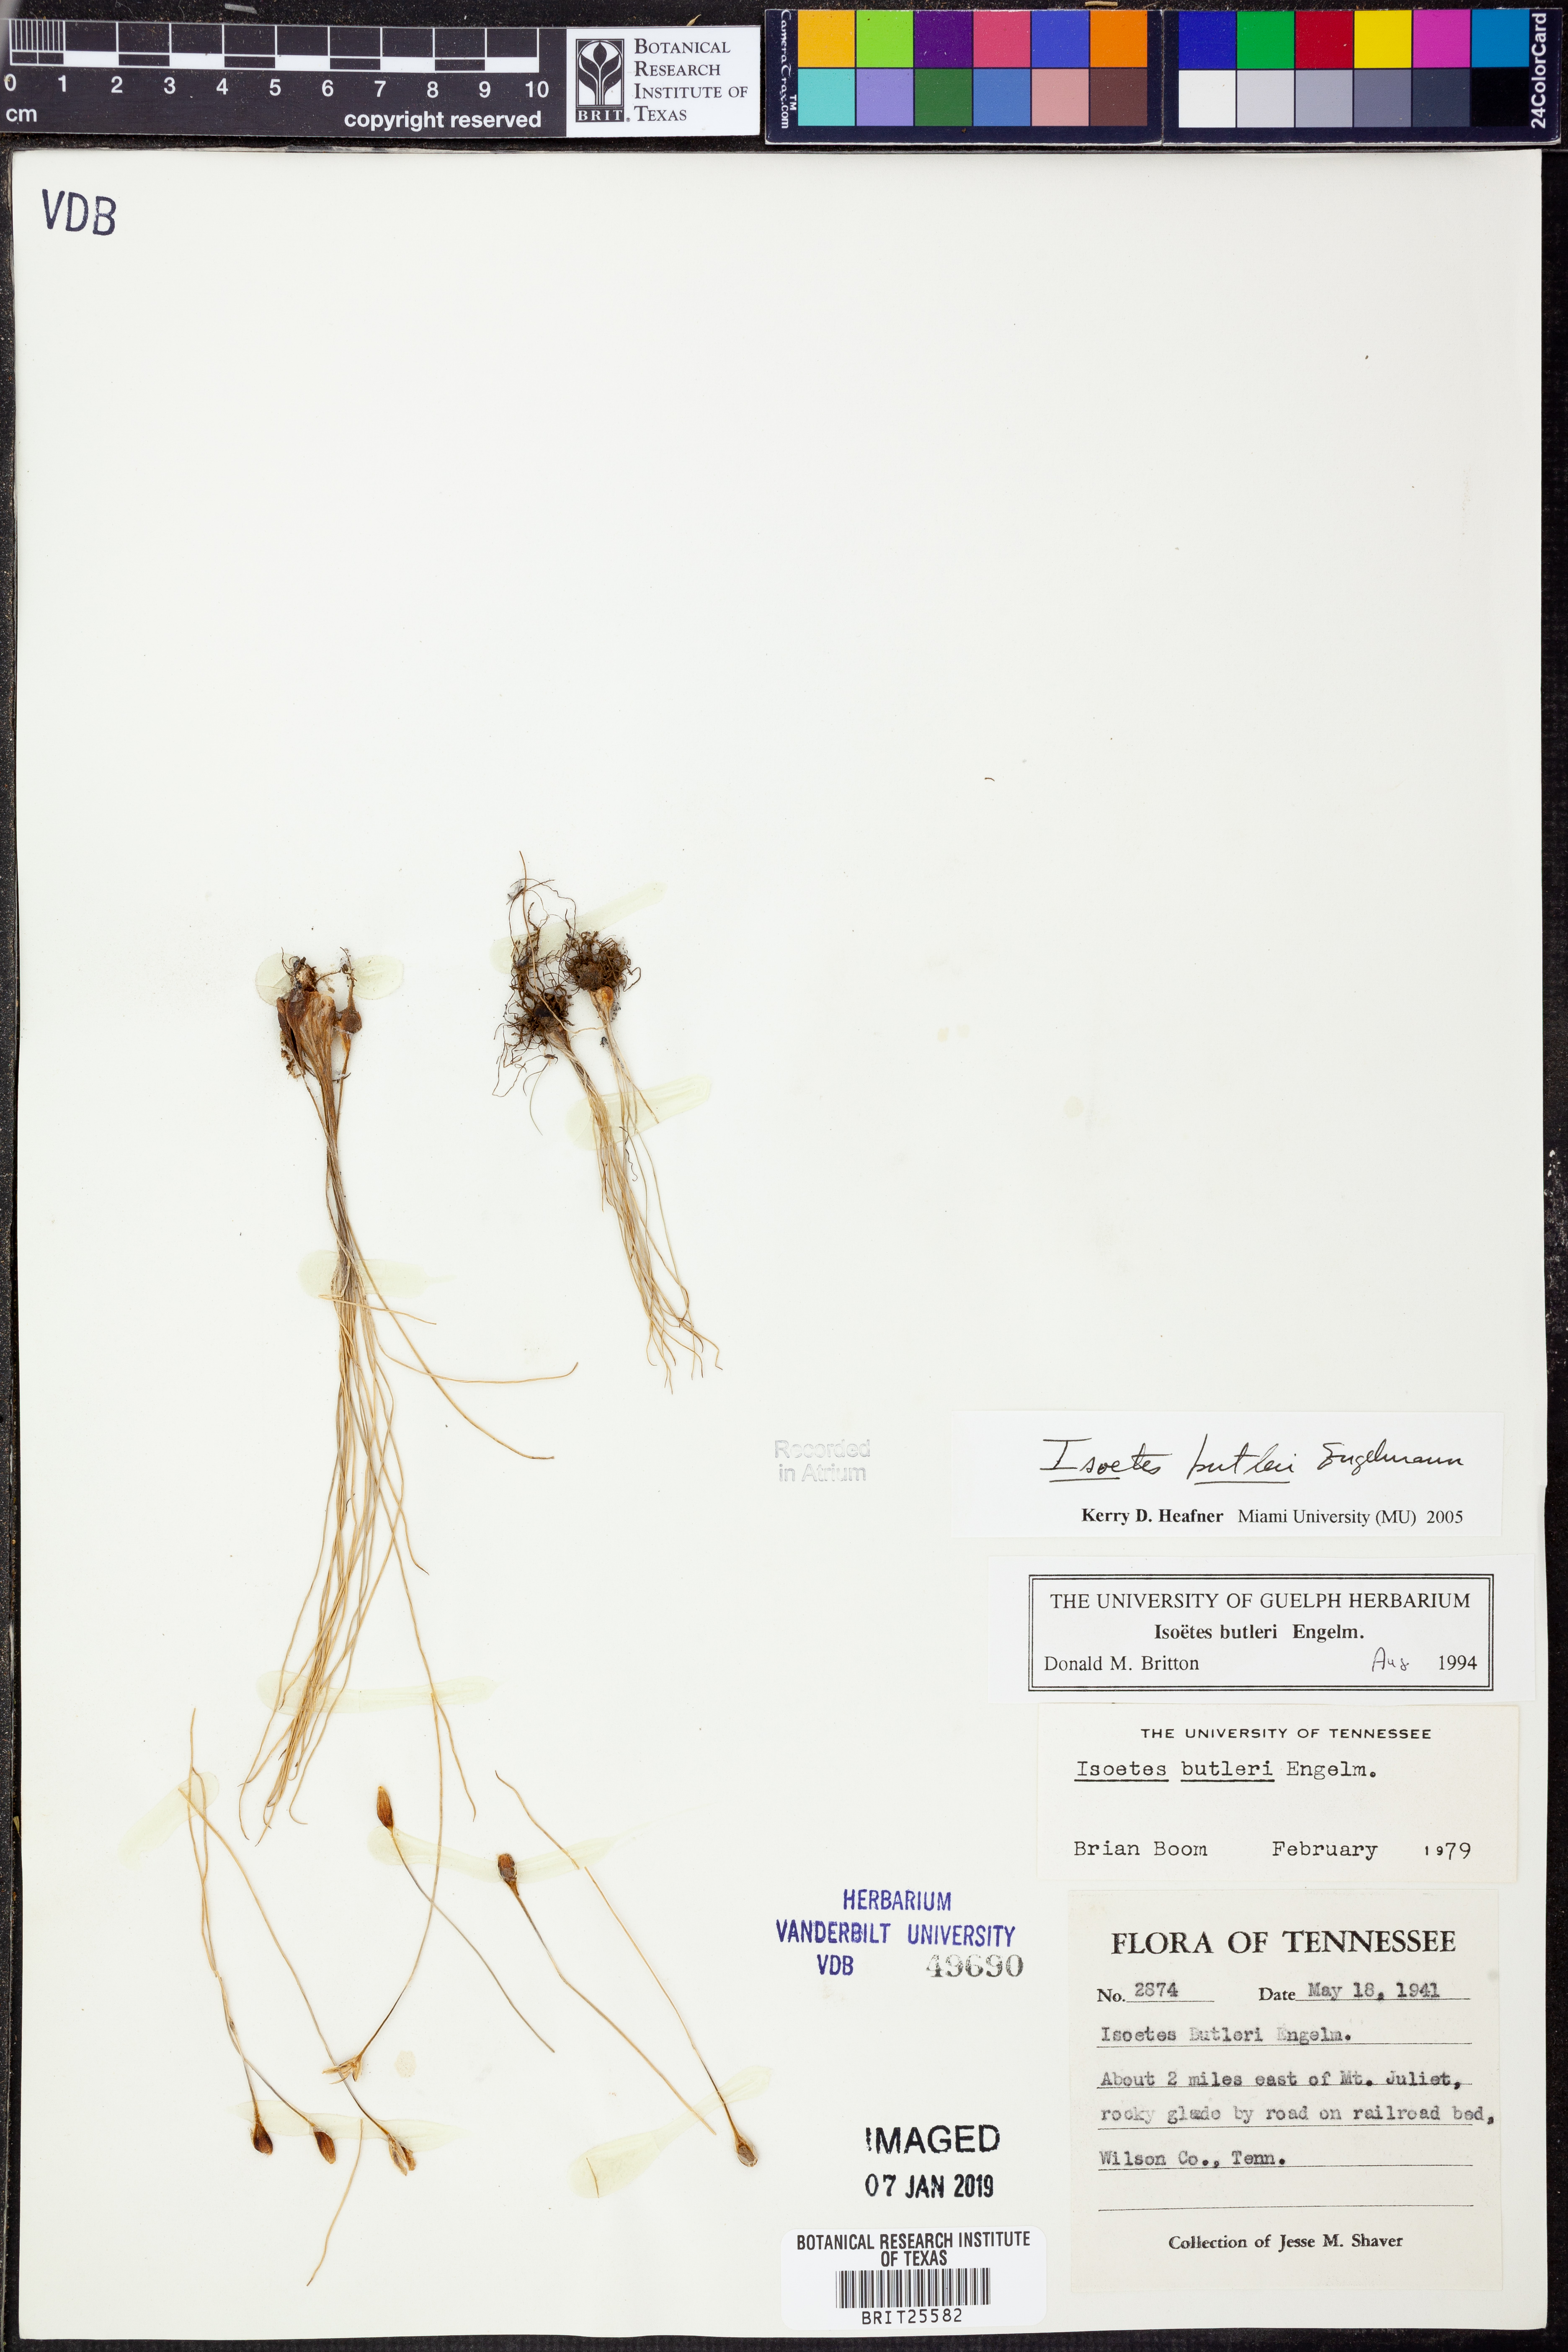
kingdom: Plantae
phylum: Tracheophyta
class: Lycopodiopsida
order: Isoetales
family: Isoetaceae
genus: Isoetes
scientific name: Isoetes butleri
